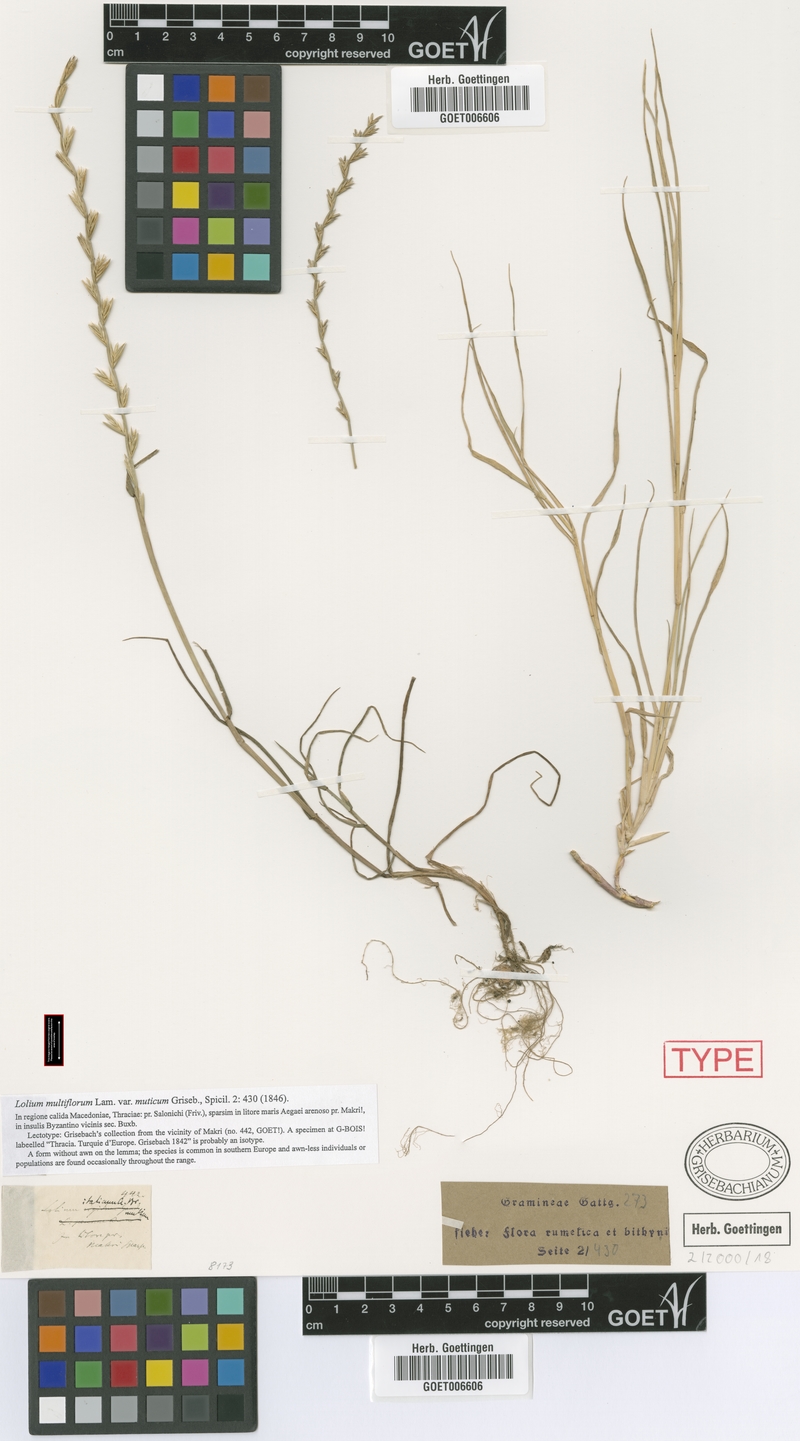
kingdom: Plantae
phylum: Tracheophyta
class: Liliopsida
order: Poales
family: Poaceae
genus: Lolium
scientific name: Lolium
